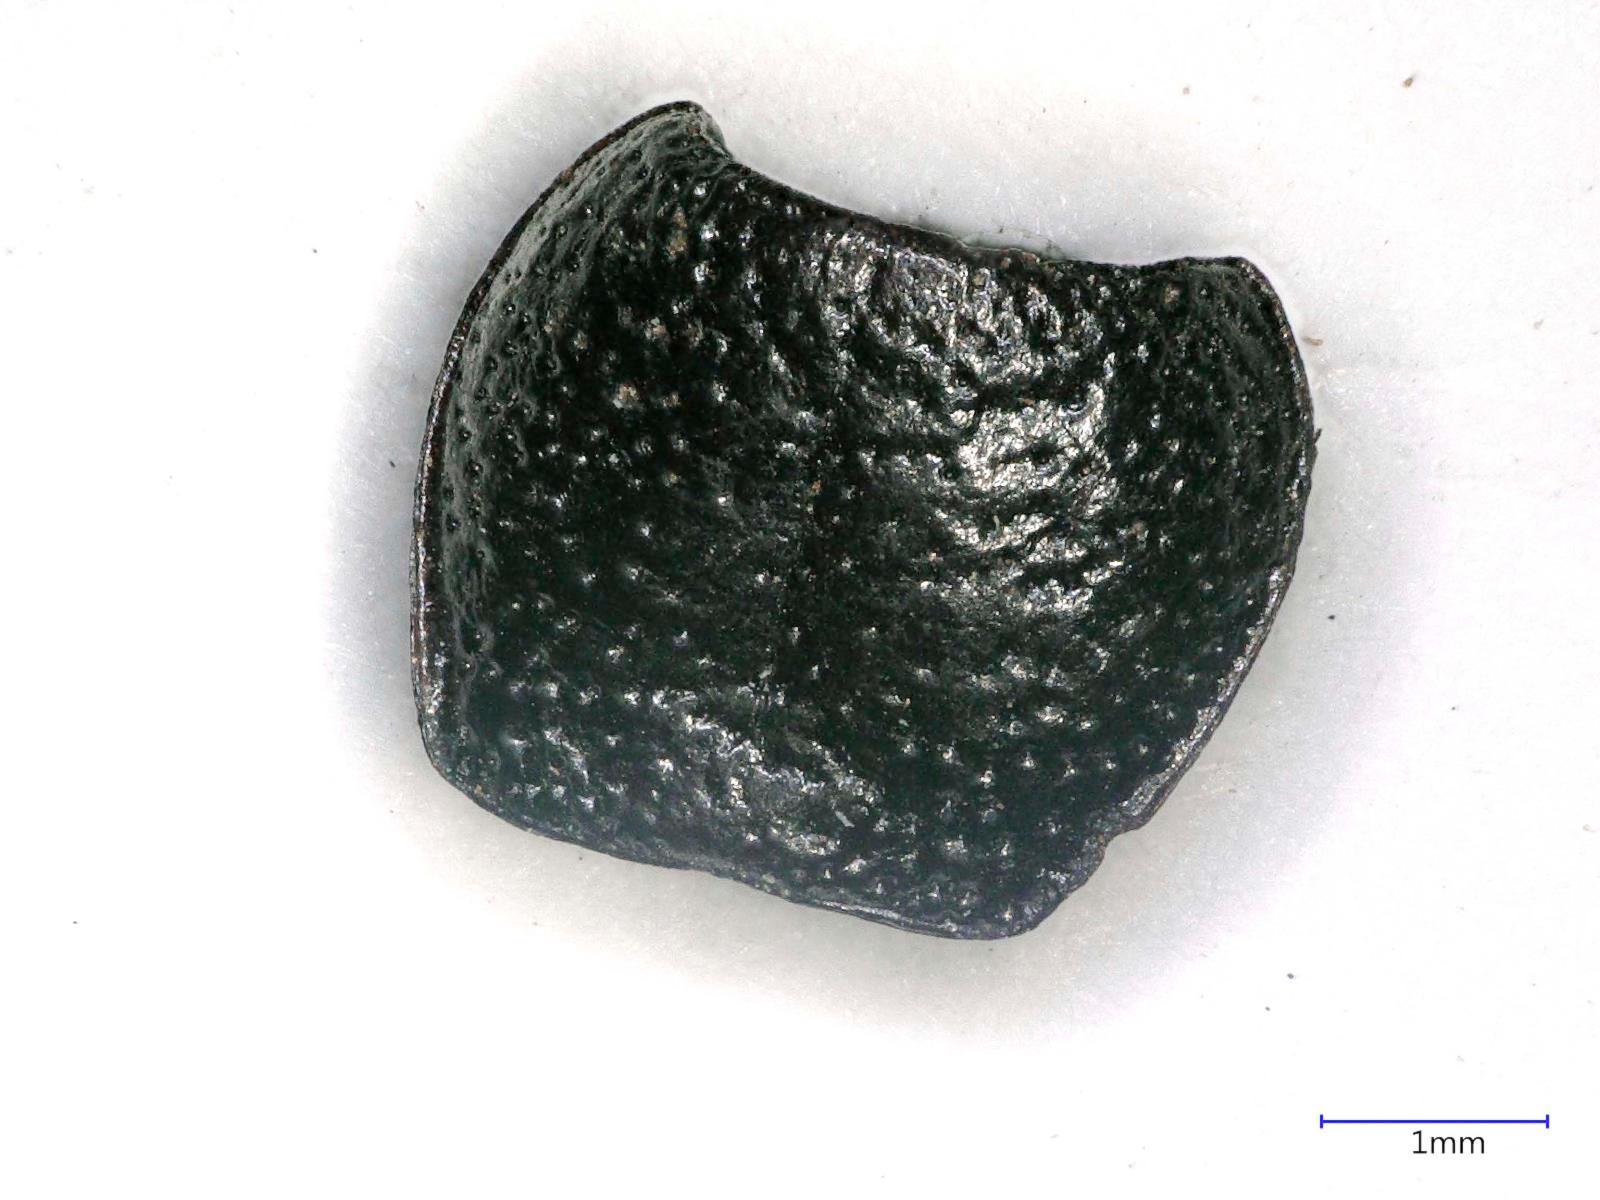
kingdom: Animalia
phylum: Arthropoda
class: Insecta
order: Coleoptera
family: Carabidae
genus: Dicheirus
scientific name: Dicheirus dilatatus
